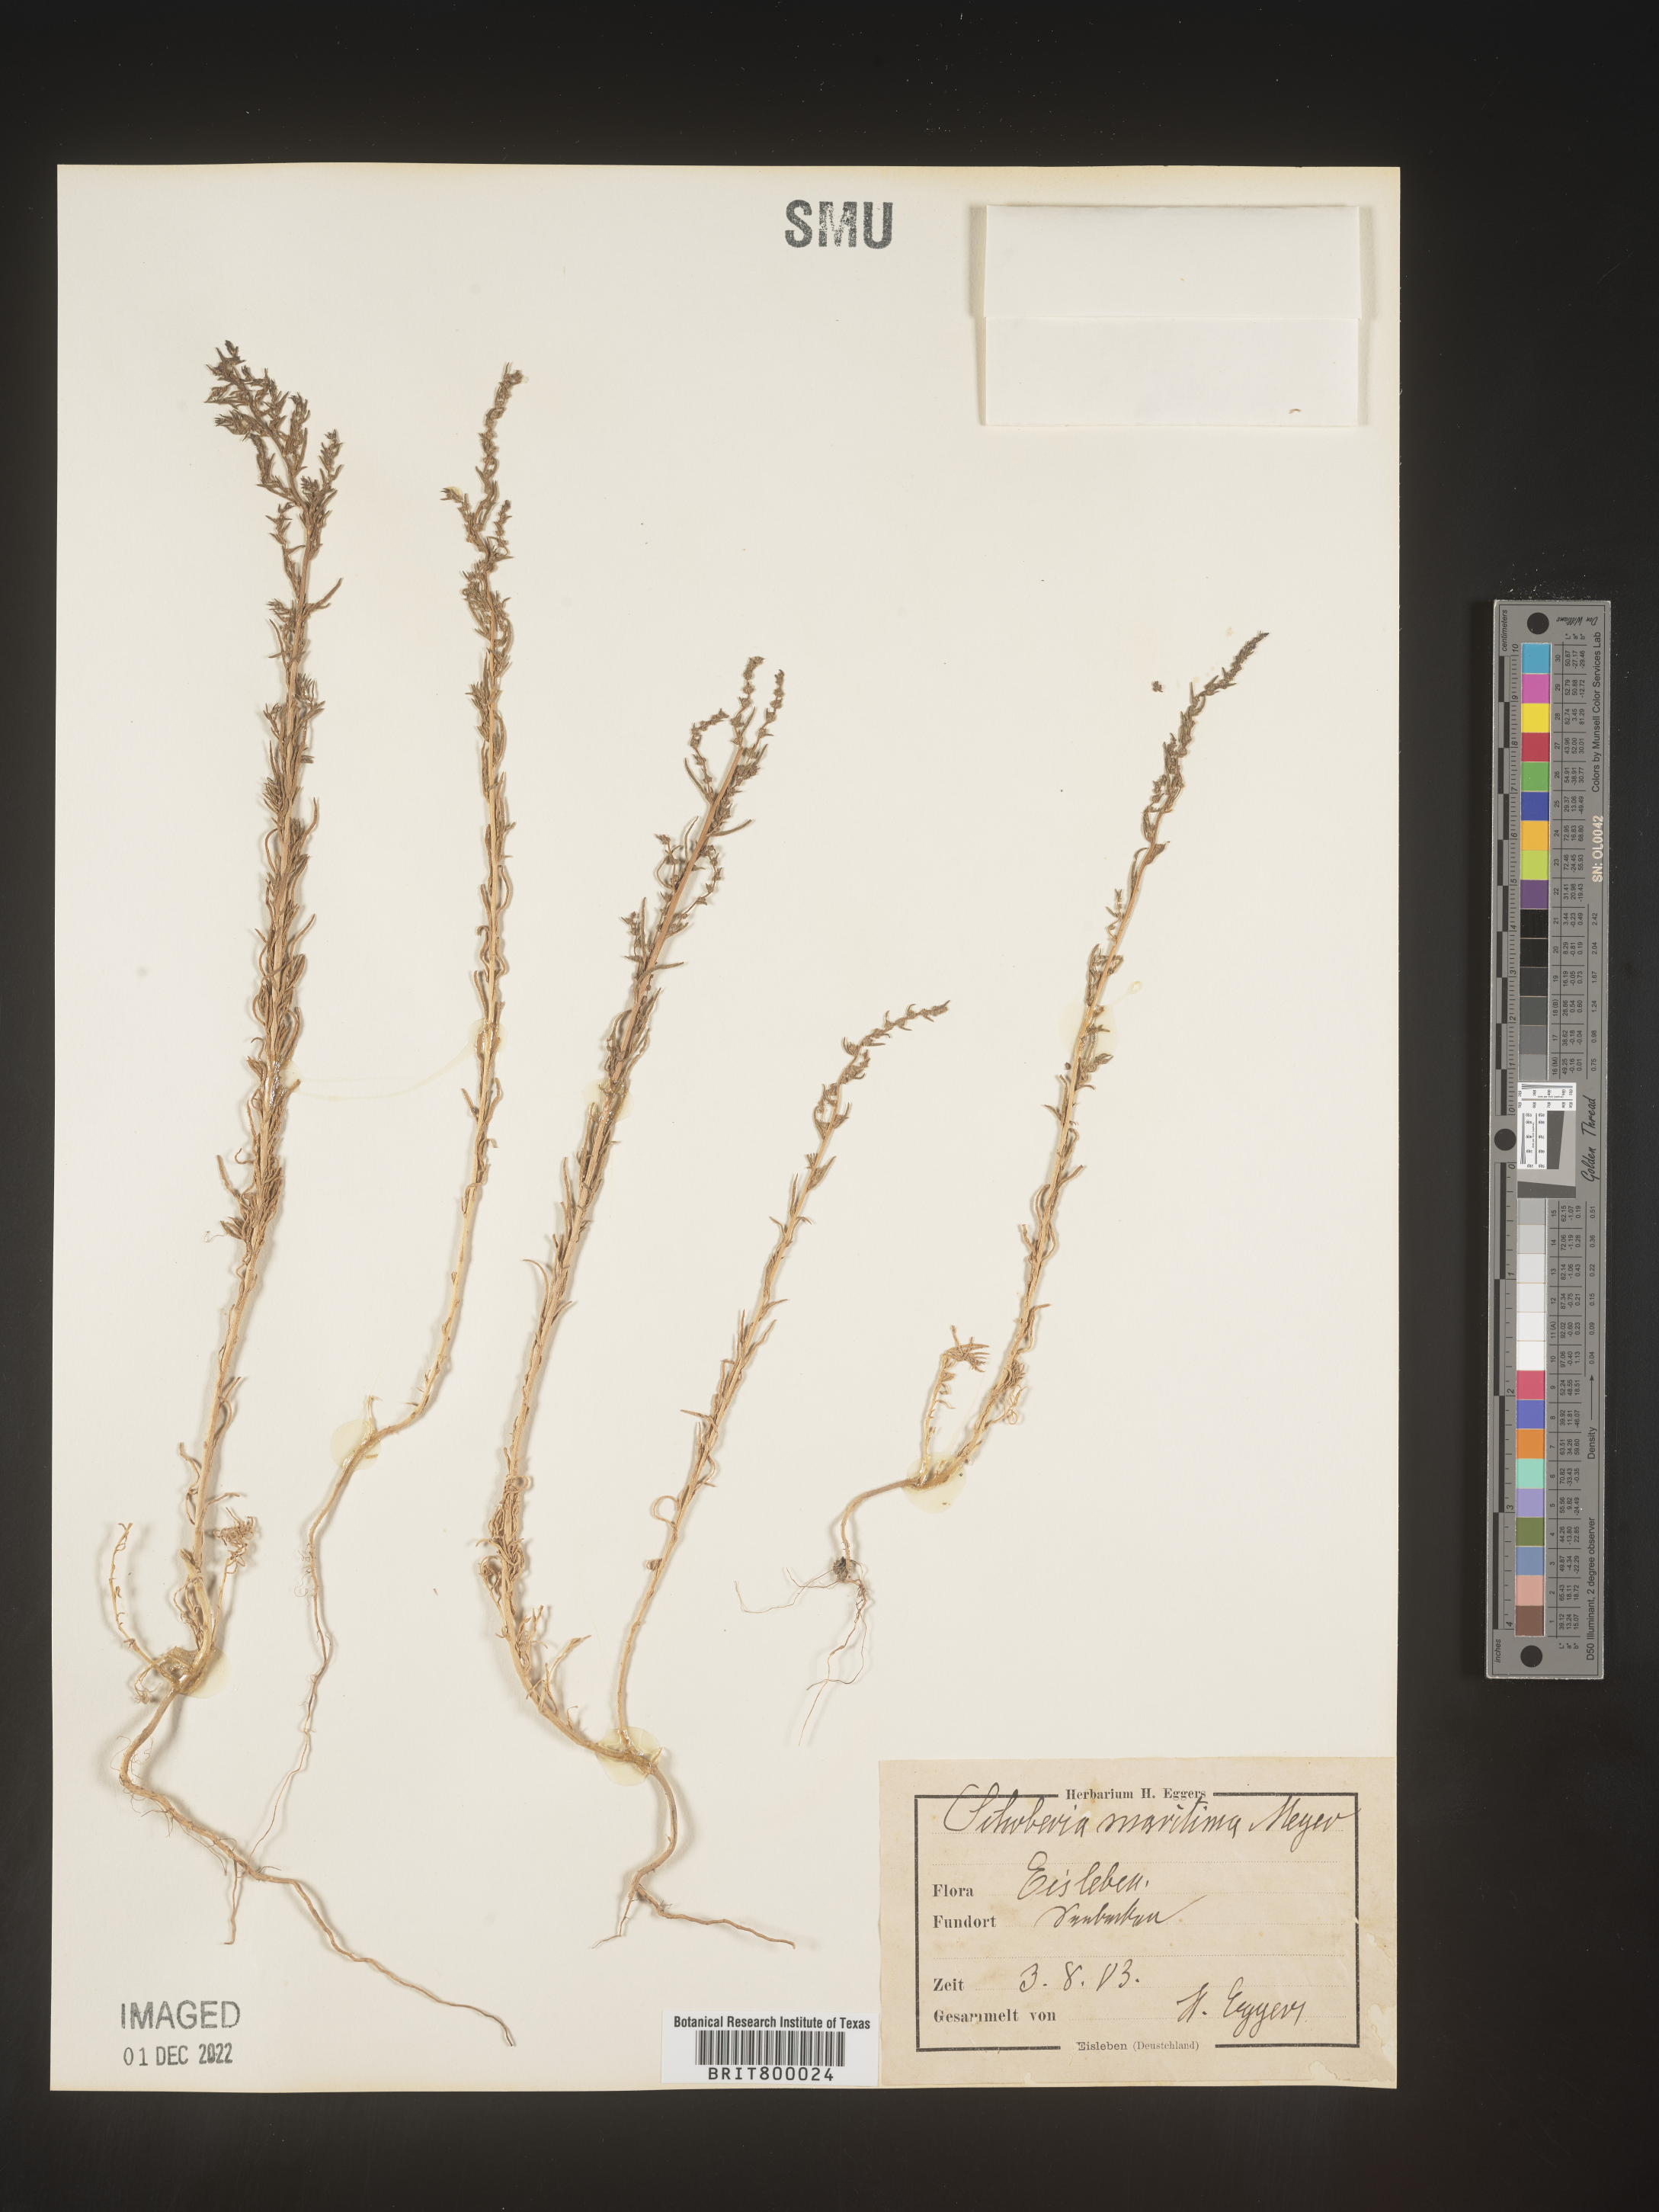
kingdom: Plantae
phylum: Tracheophyta
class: Magnoliopsida
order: Caryophyllales
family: Amaranthaceae
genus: Suaeda
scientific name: Suaeda
